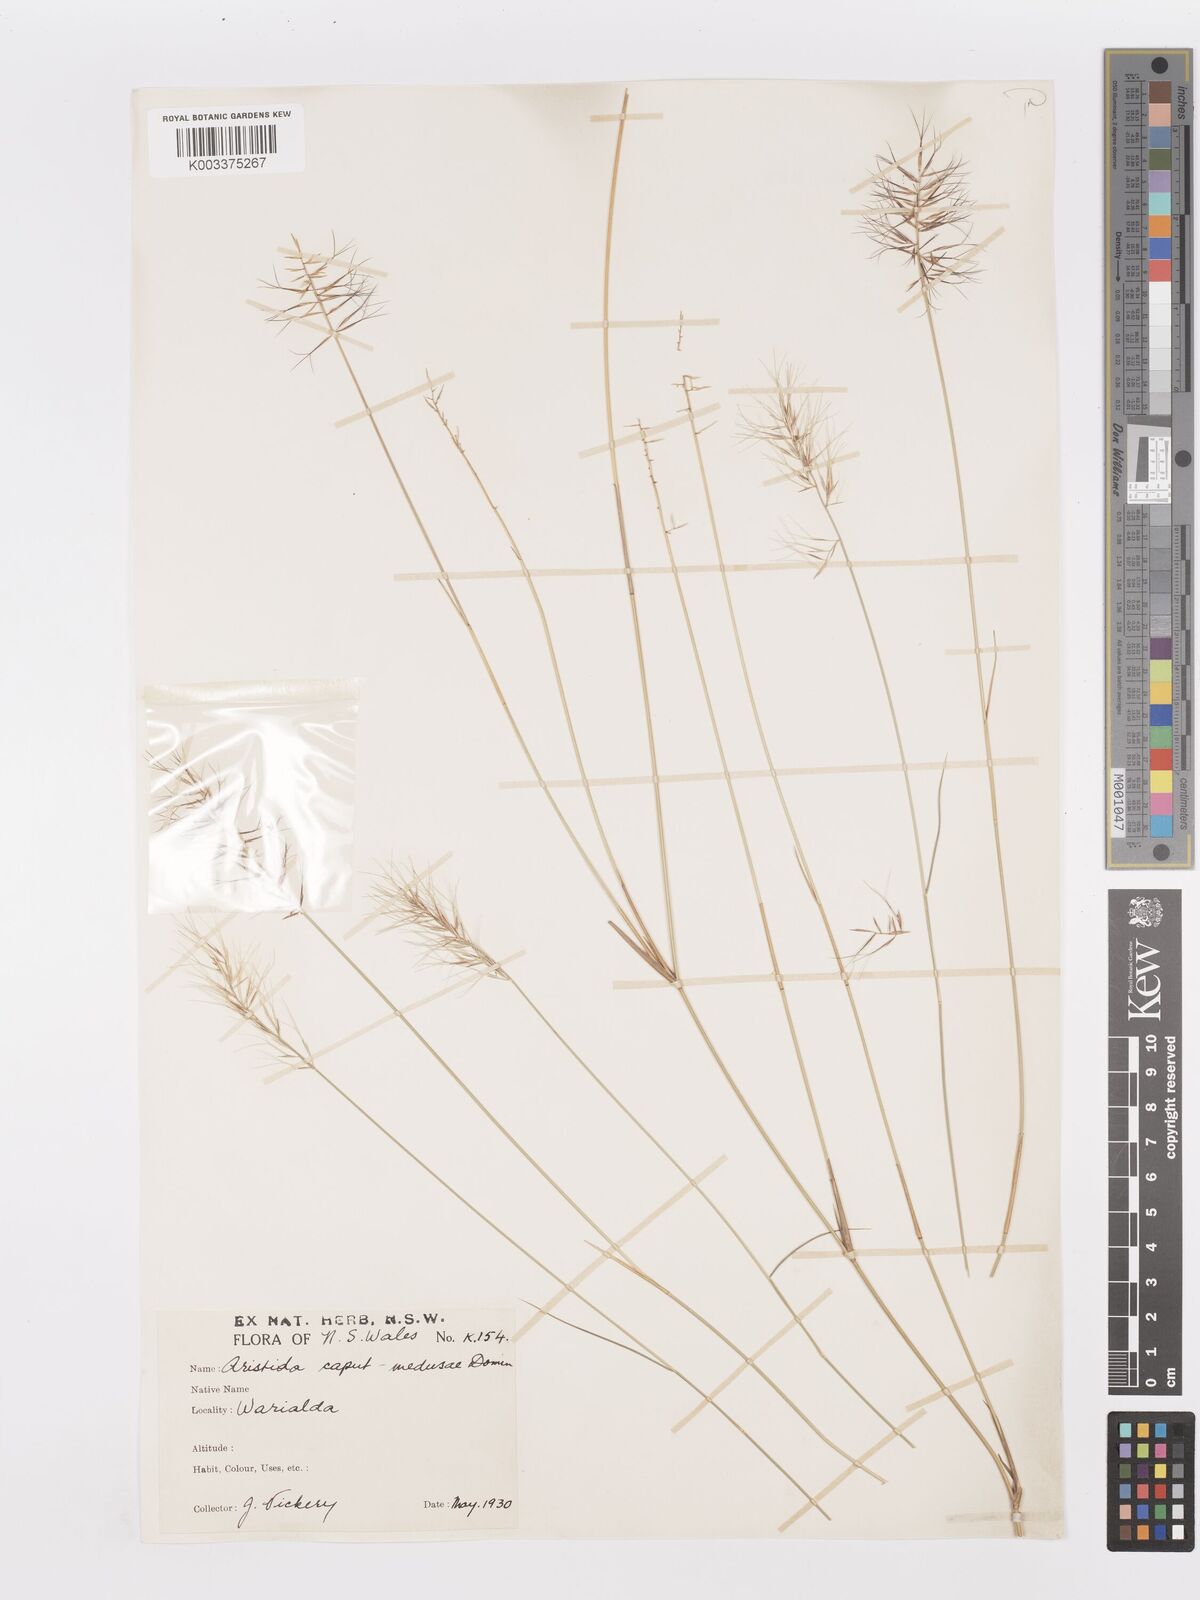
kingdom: Plantae
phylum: Tracheophyta
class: Liliopsida
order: Poales
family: Poaceae
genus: Aristida
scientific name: Aristida caput-medusae
